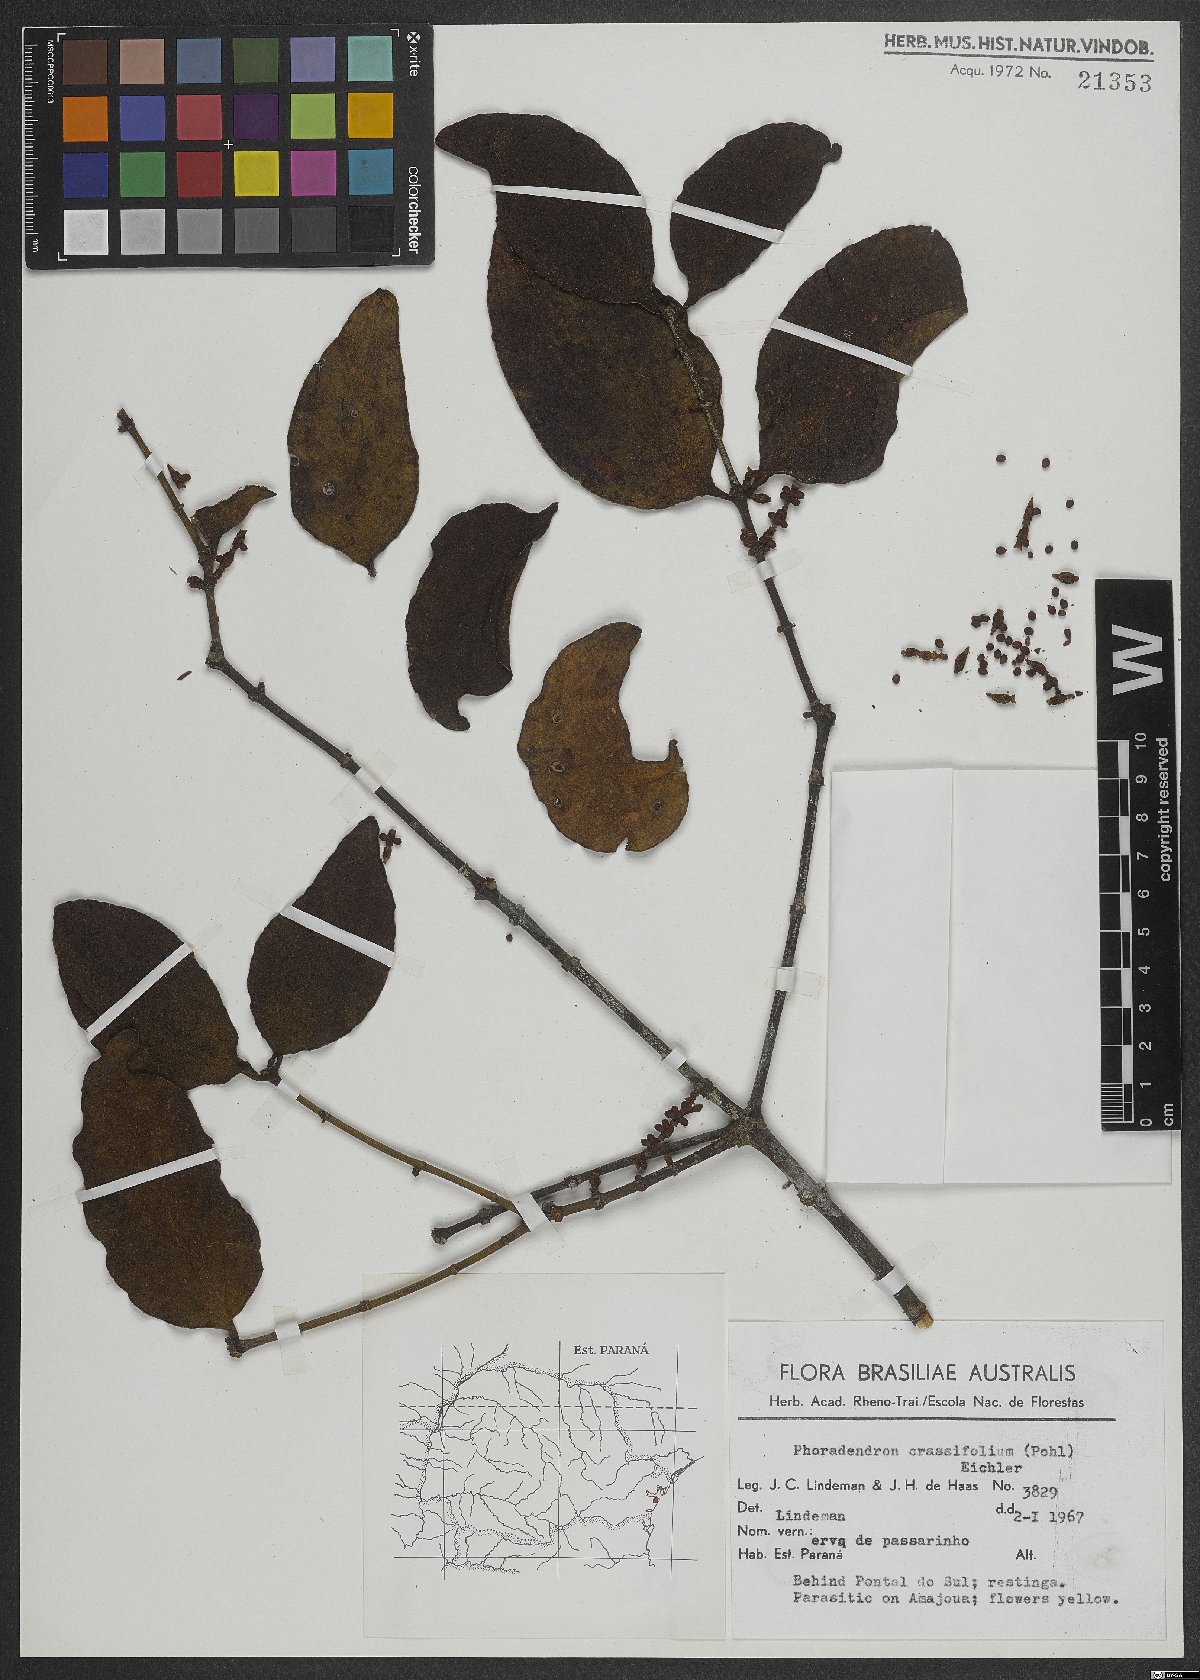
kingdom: Plantae
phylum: Tracheophyta
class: Magnoliopsida
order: Santalales
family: Viscaceae
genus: Phoradendron
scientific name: Phoradendron crassifolium
